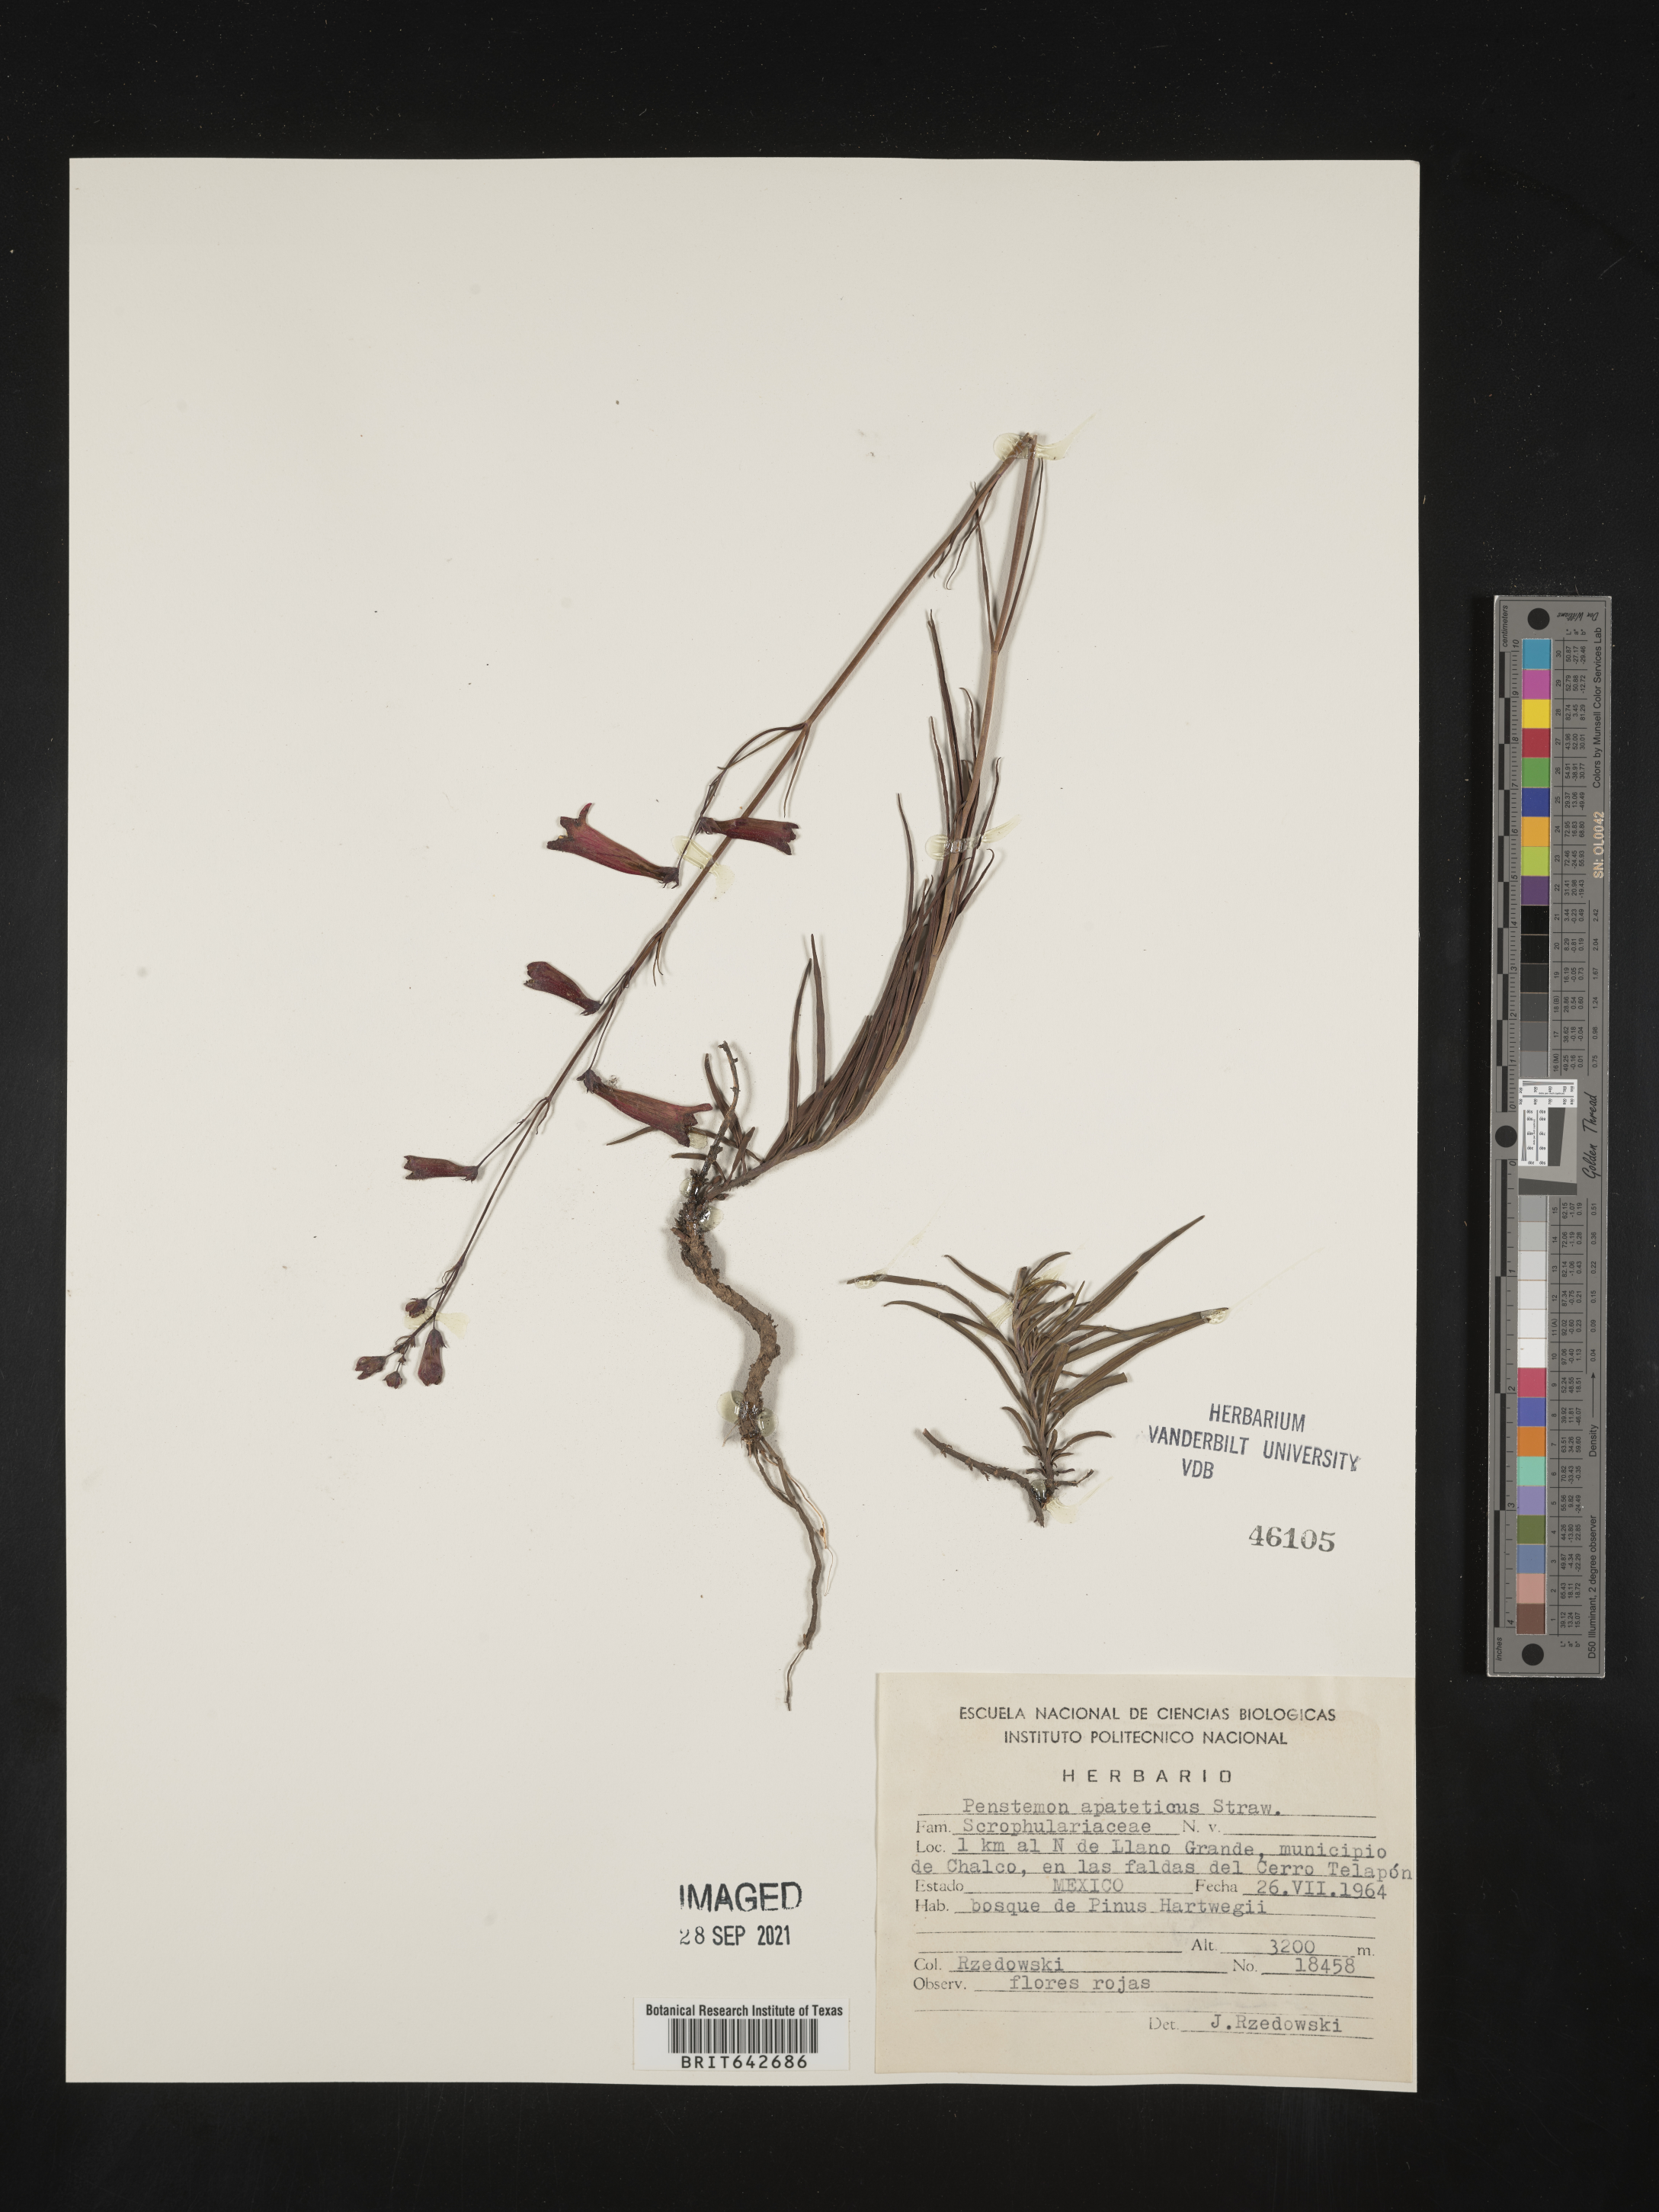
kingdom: Plantae
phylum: Tracheophyta
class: Magnoliopsida
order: Lamiales
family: Plantaginaceae
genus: Penstemon
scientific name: Penstemon
